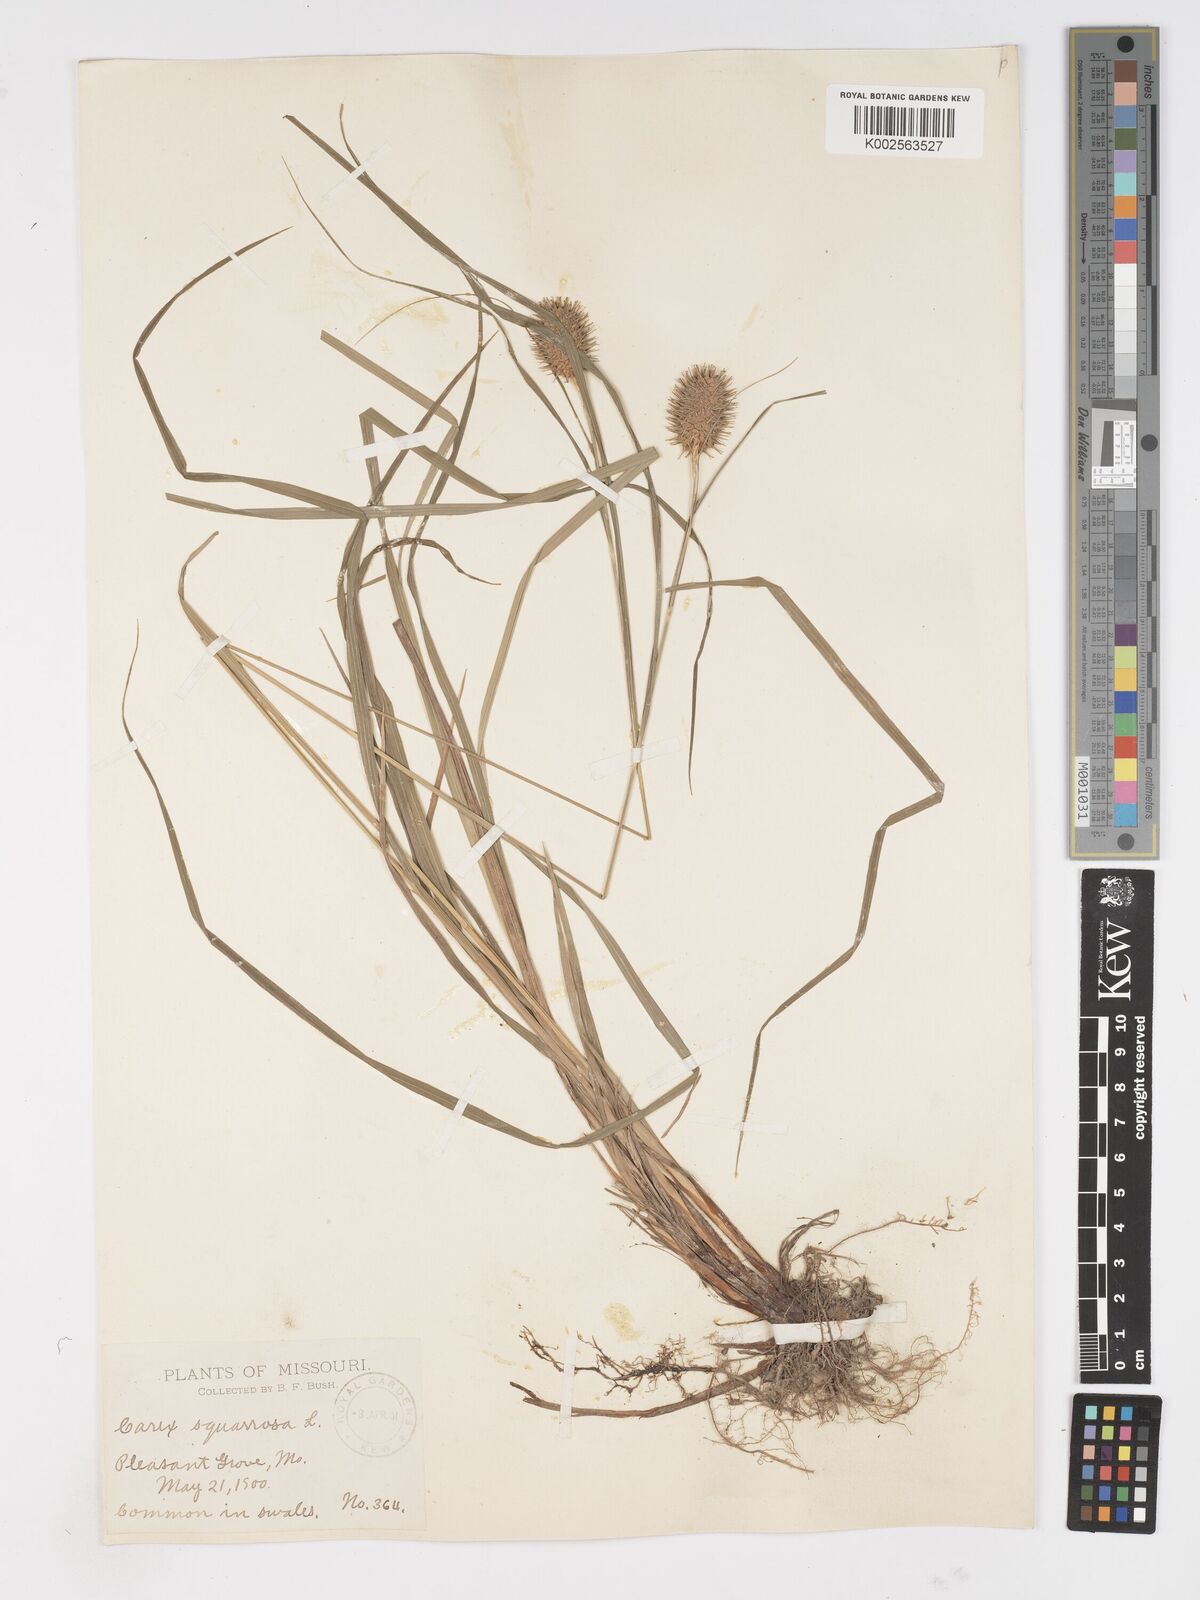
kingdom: Plantae
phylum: Tracheophyta
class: Liliopsida
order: Poales
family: Cyperaceae
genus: Carex
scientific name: Carex squarrosa
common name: Narrow-leaved cattail sedge
